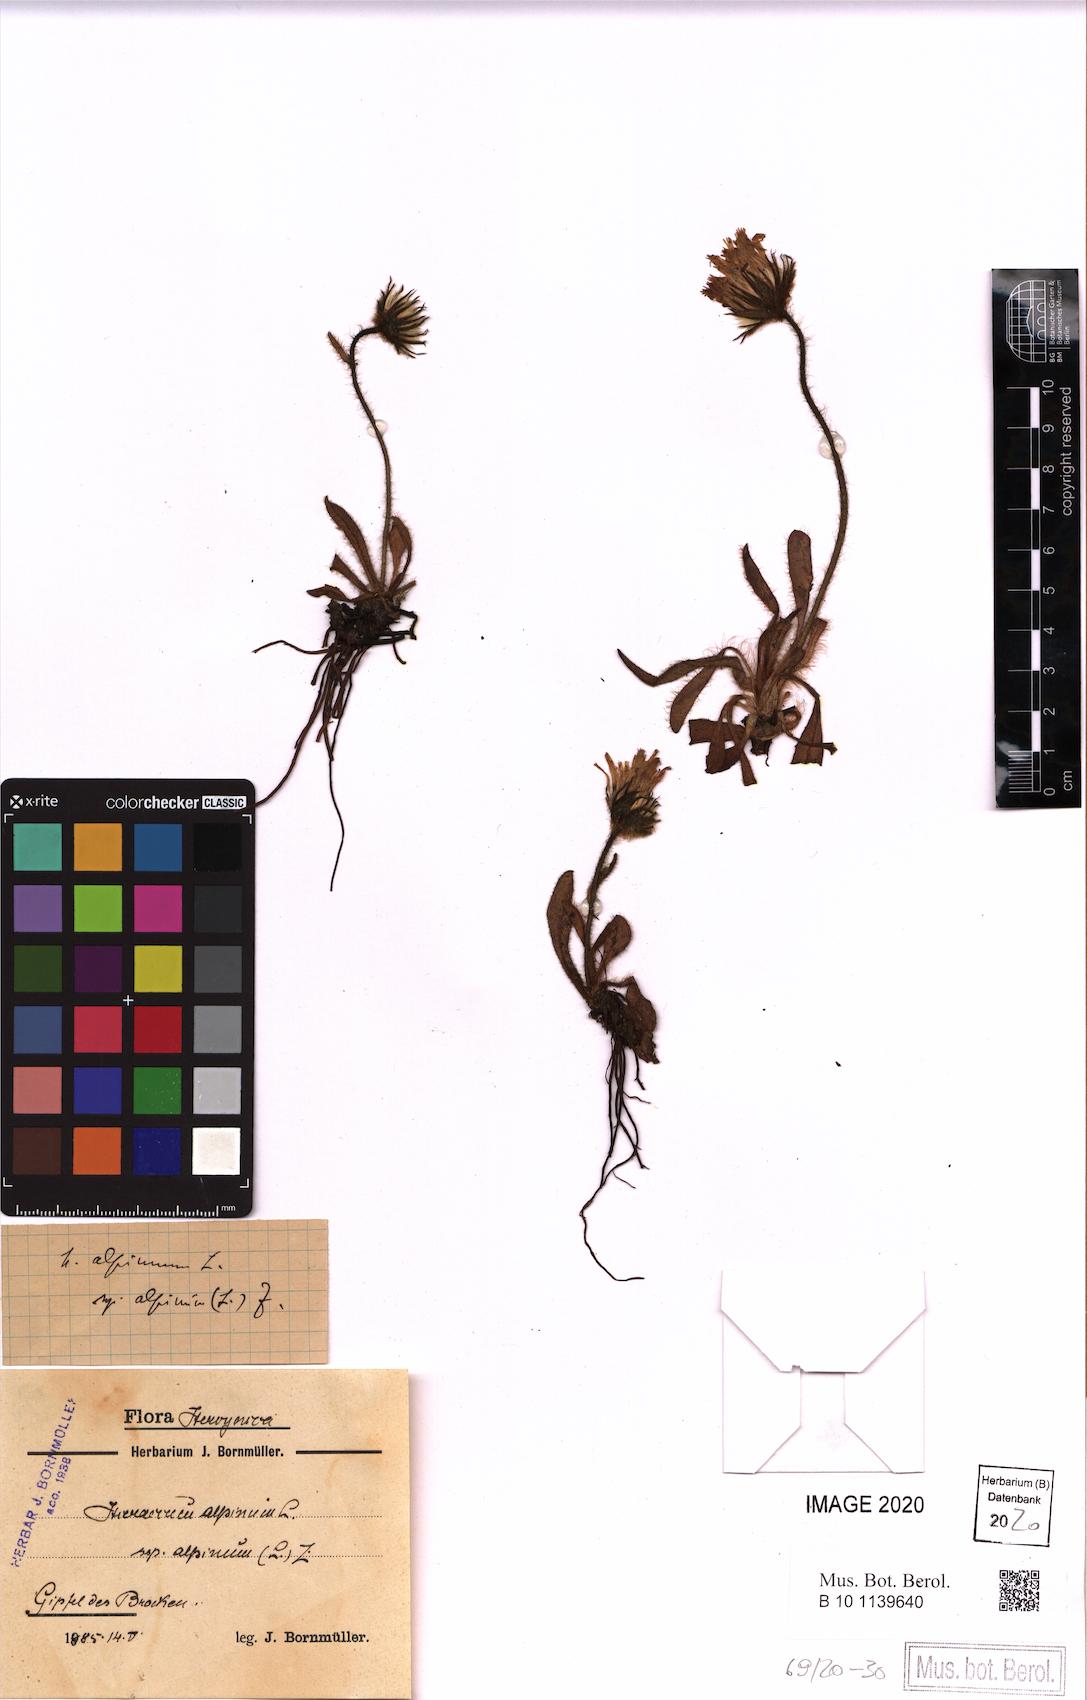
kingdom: Plantae
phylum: Tracheophyta
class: Magnoliopsida
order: Asterales
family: Asteraceae
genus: Hieracium
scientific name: Hieracium alpinum
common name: Alpine hawkweed
